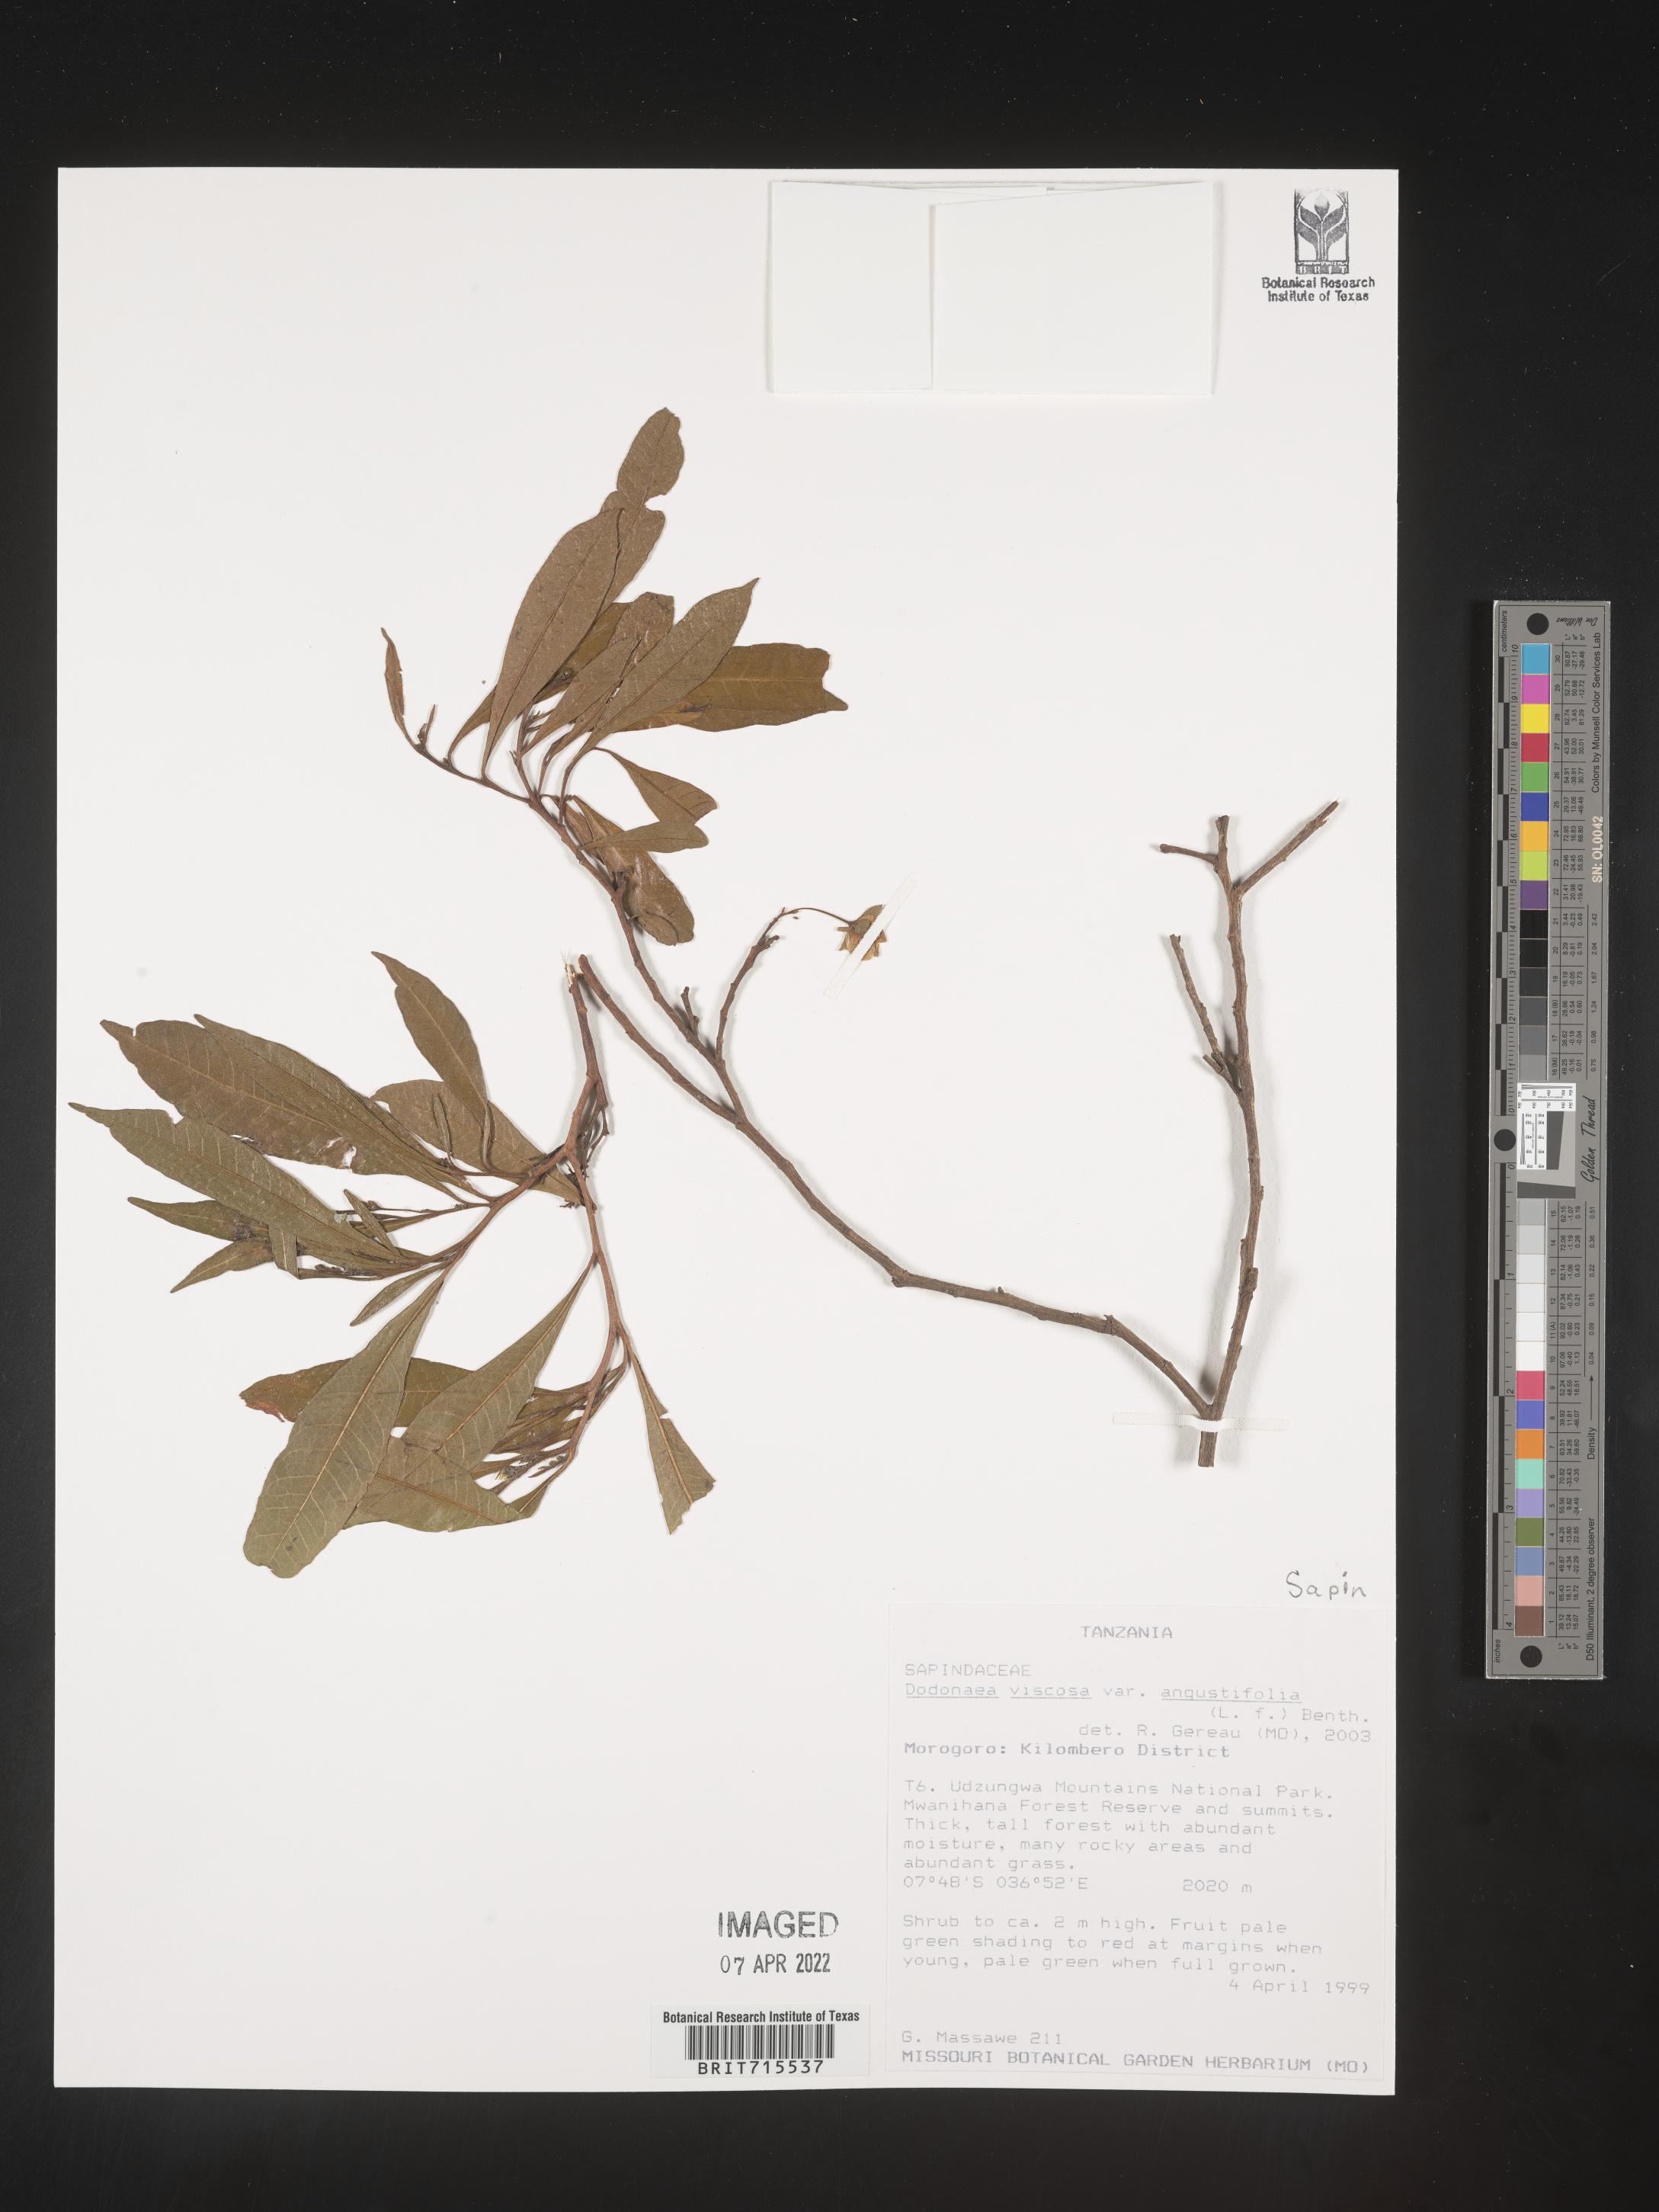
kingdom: Plantae
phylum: Tracheophyta
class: Magnoliopsida
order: Sapindales
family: Sapindaceae
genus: Dodonaea
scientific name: Dodonaea viscosa
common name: Hopbush
